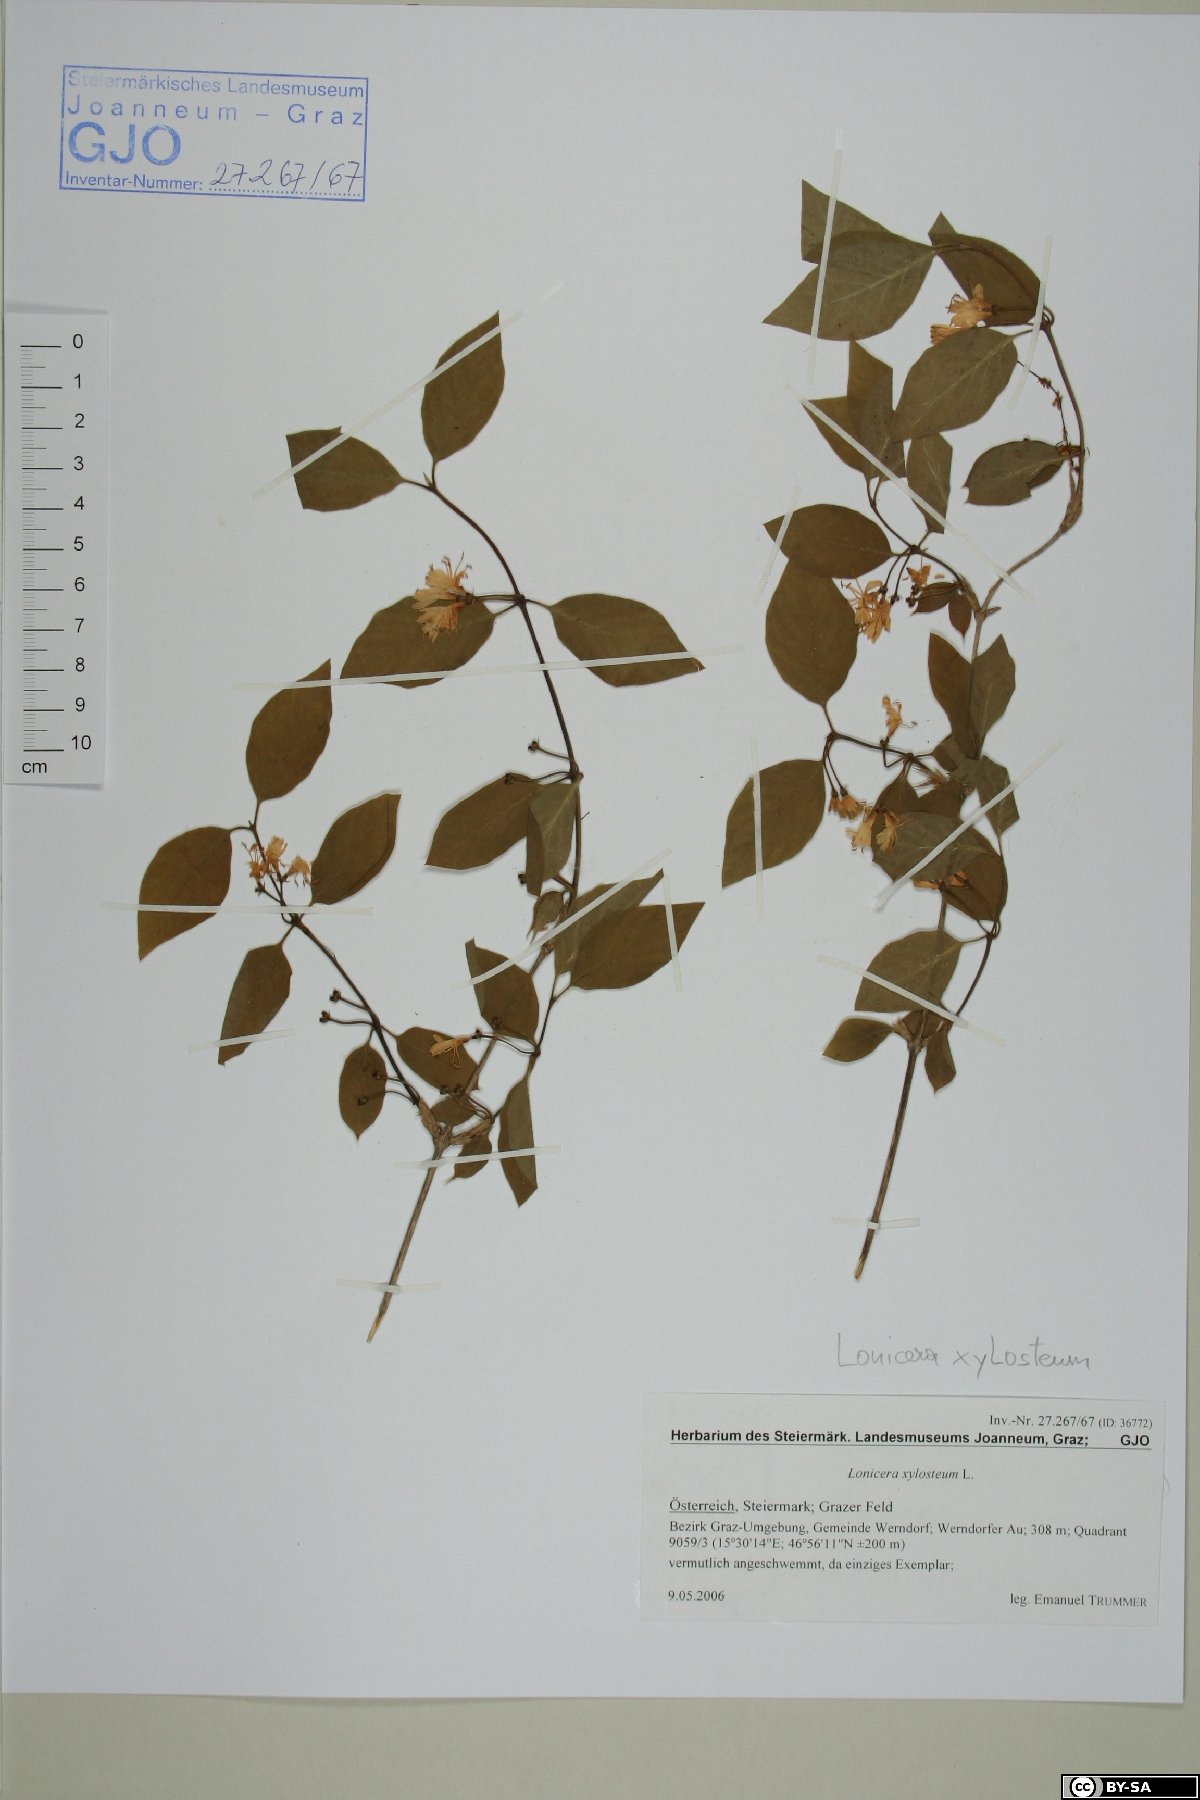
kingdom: Plantae
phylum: Tracheophyta
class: Magnoliopsida
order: Dipsacales
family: Caprifoliaceae
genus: Lonicera
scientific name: Lonicera xylosteum
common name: Fly honeysuckle
